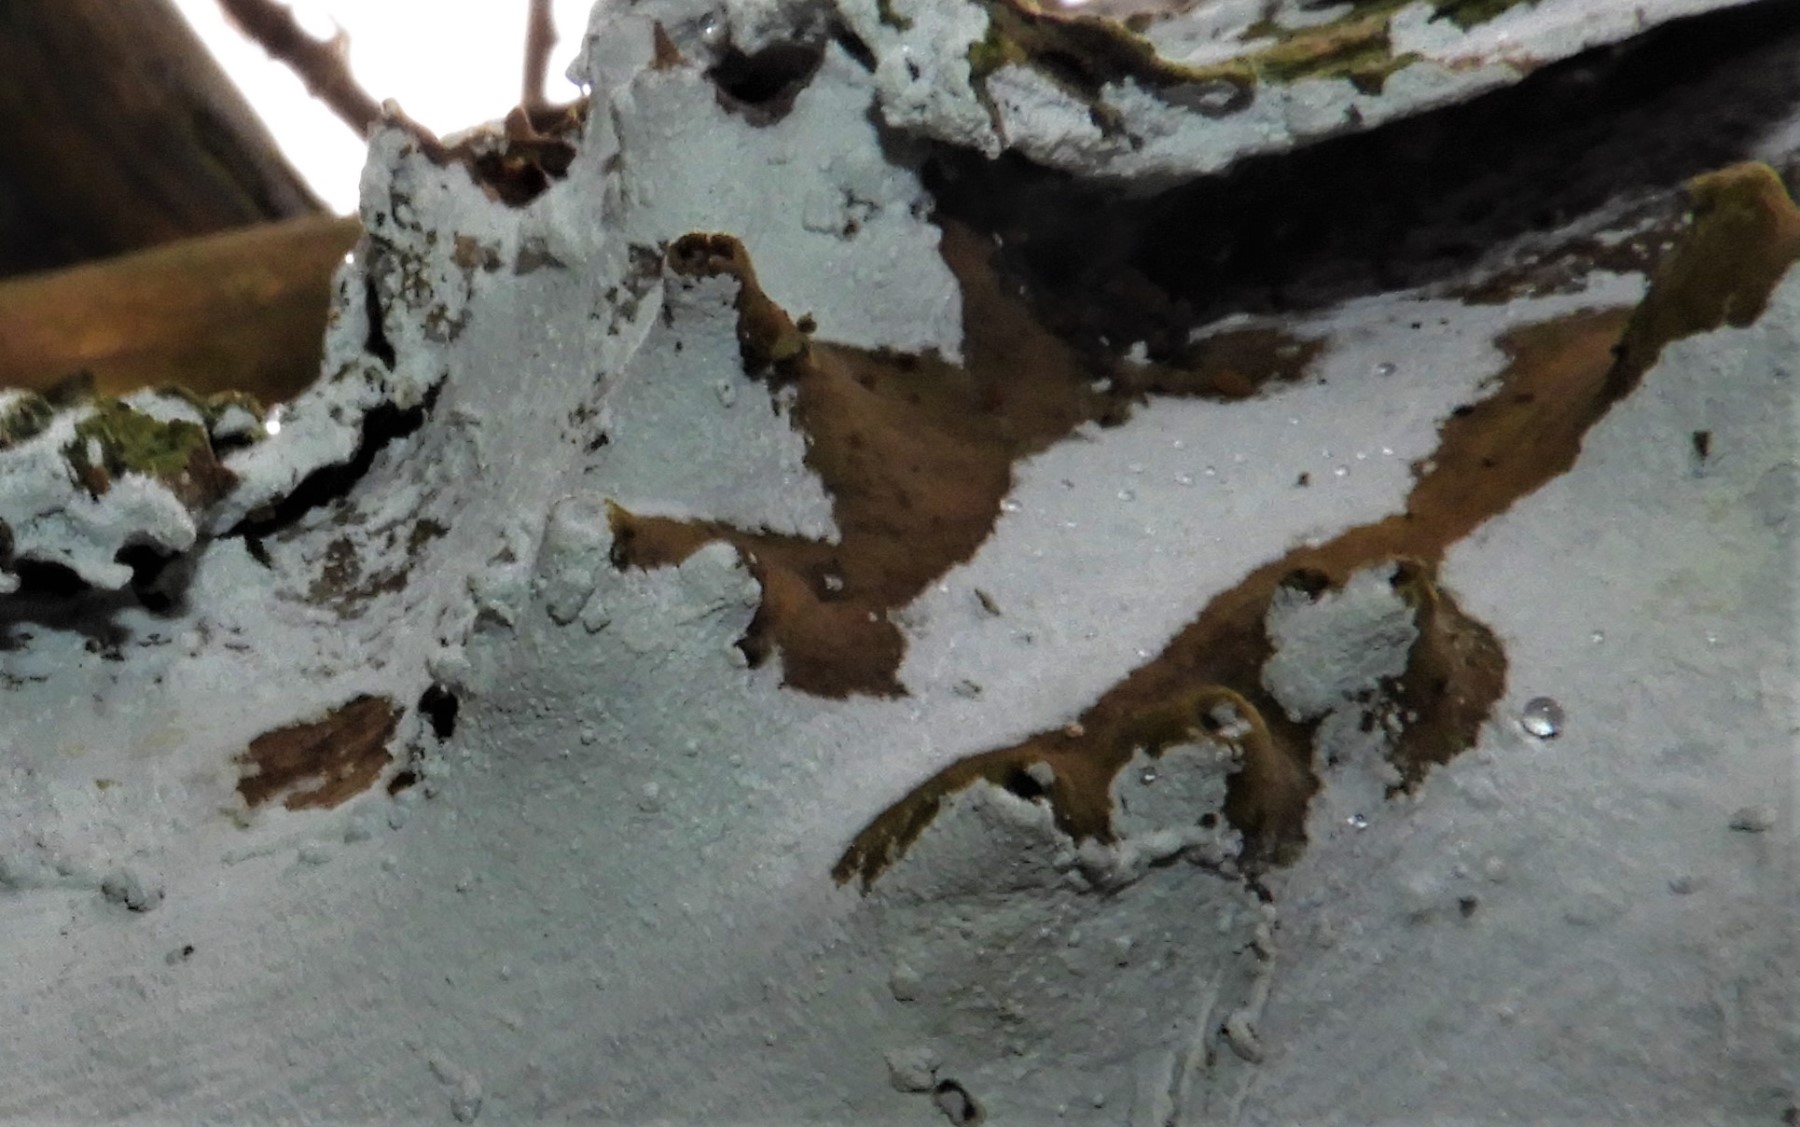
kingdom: Fungi
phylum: Basidiomycota
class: Agaricomycetes
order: Corticiales
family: Corticiaceae
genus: Lyomyces
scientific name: Lyomyces sambuci
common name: almindelig hyldehinde
